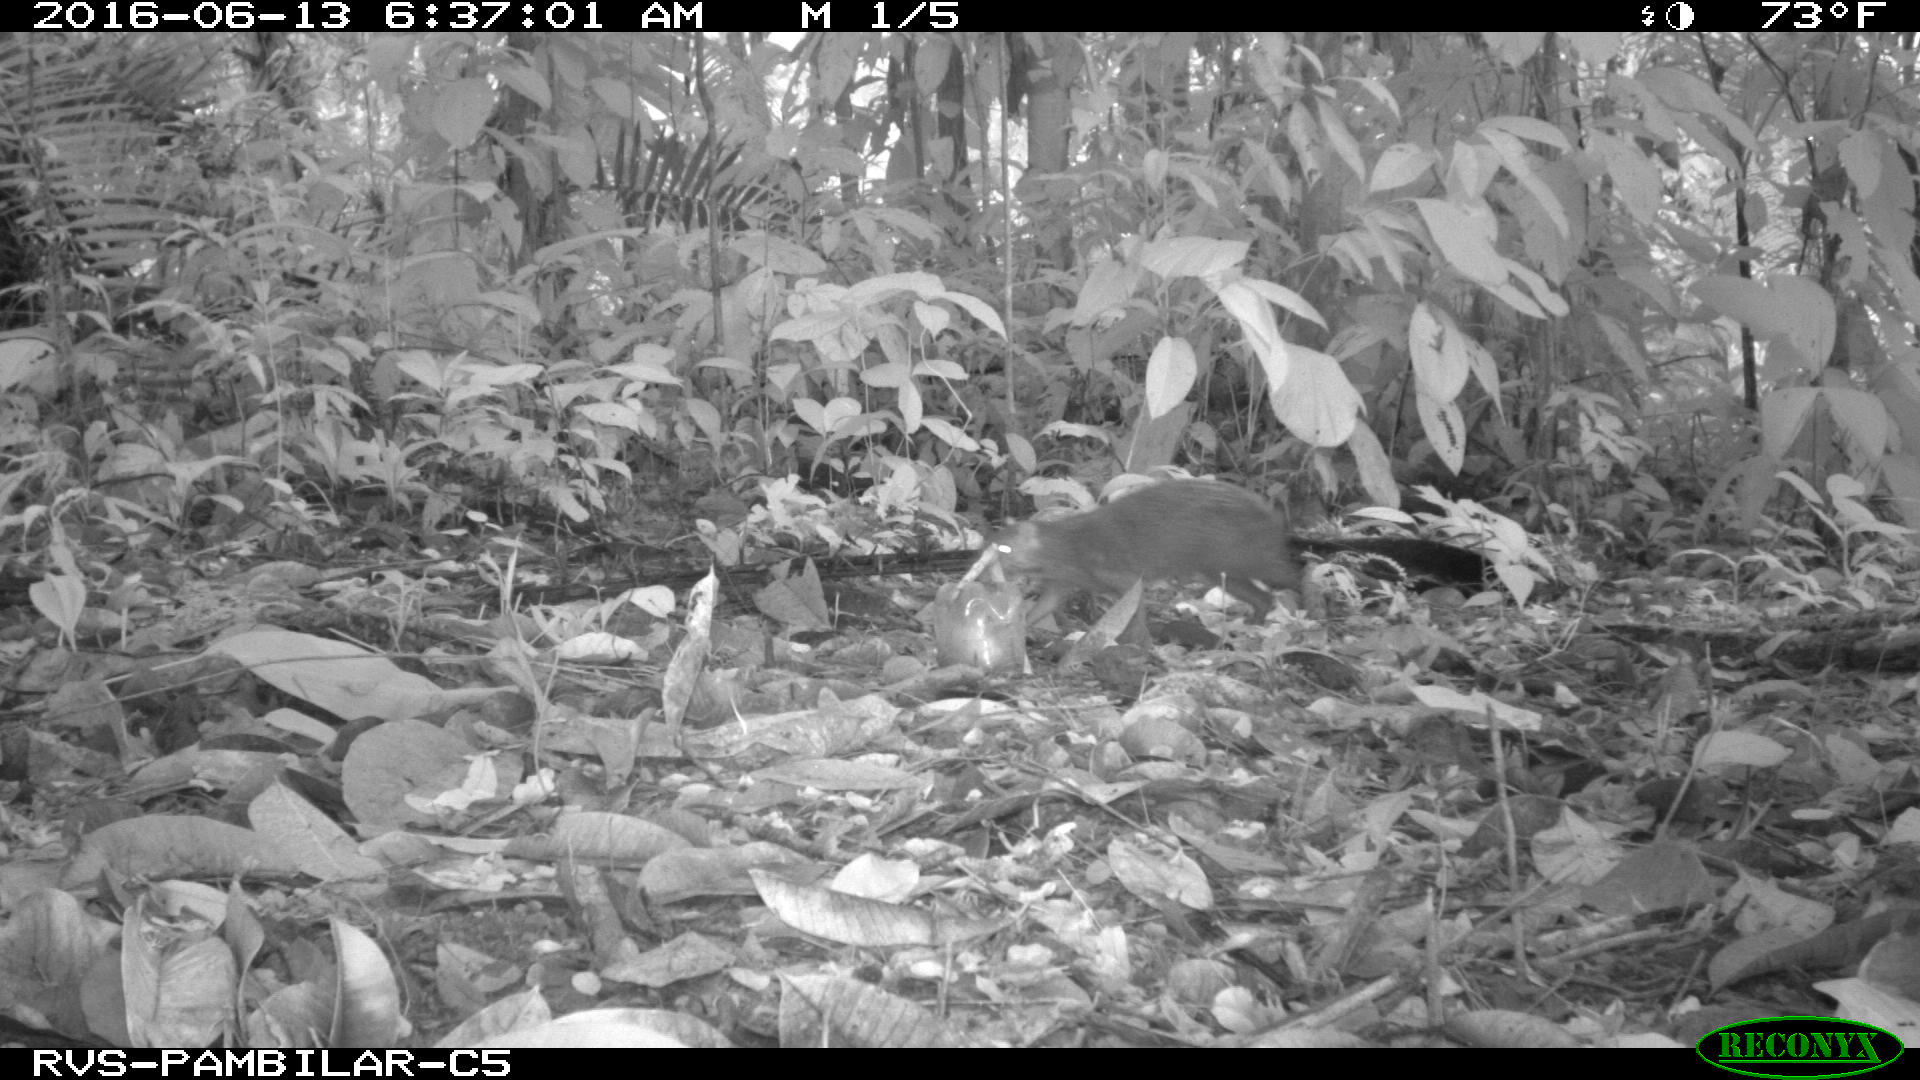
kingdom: Animalia
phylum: Chordata
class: Mammalia
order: Rodentia
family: Dasyproctidae
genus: Dasyprocta
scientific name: Dasyprocta punctata
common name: Central american agouti
